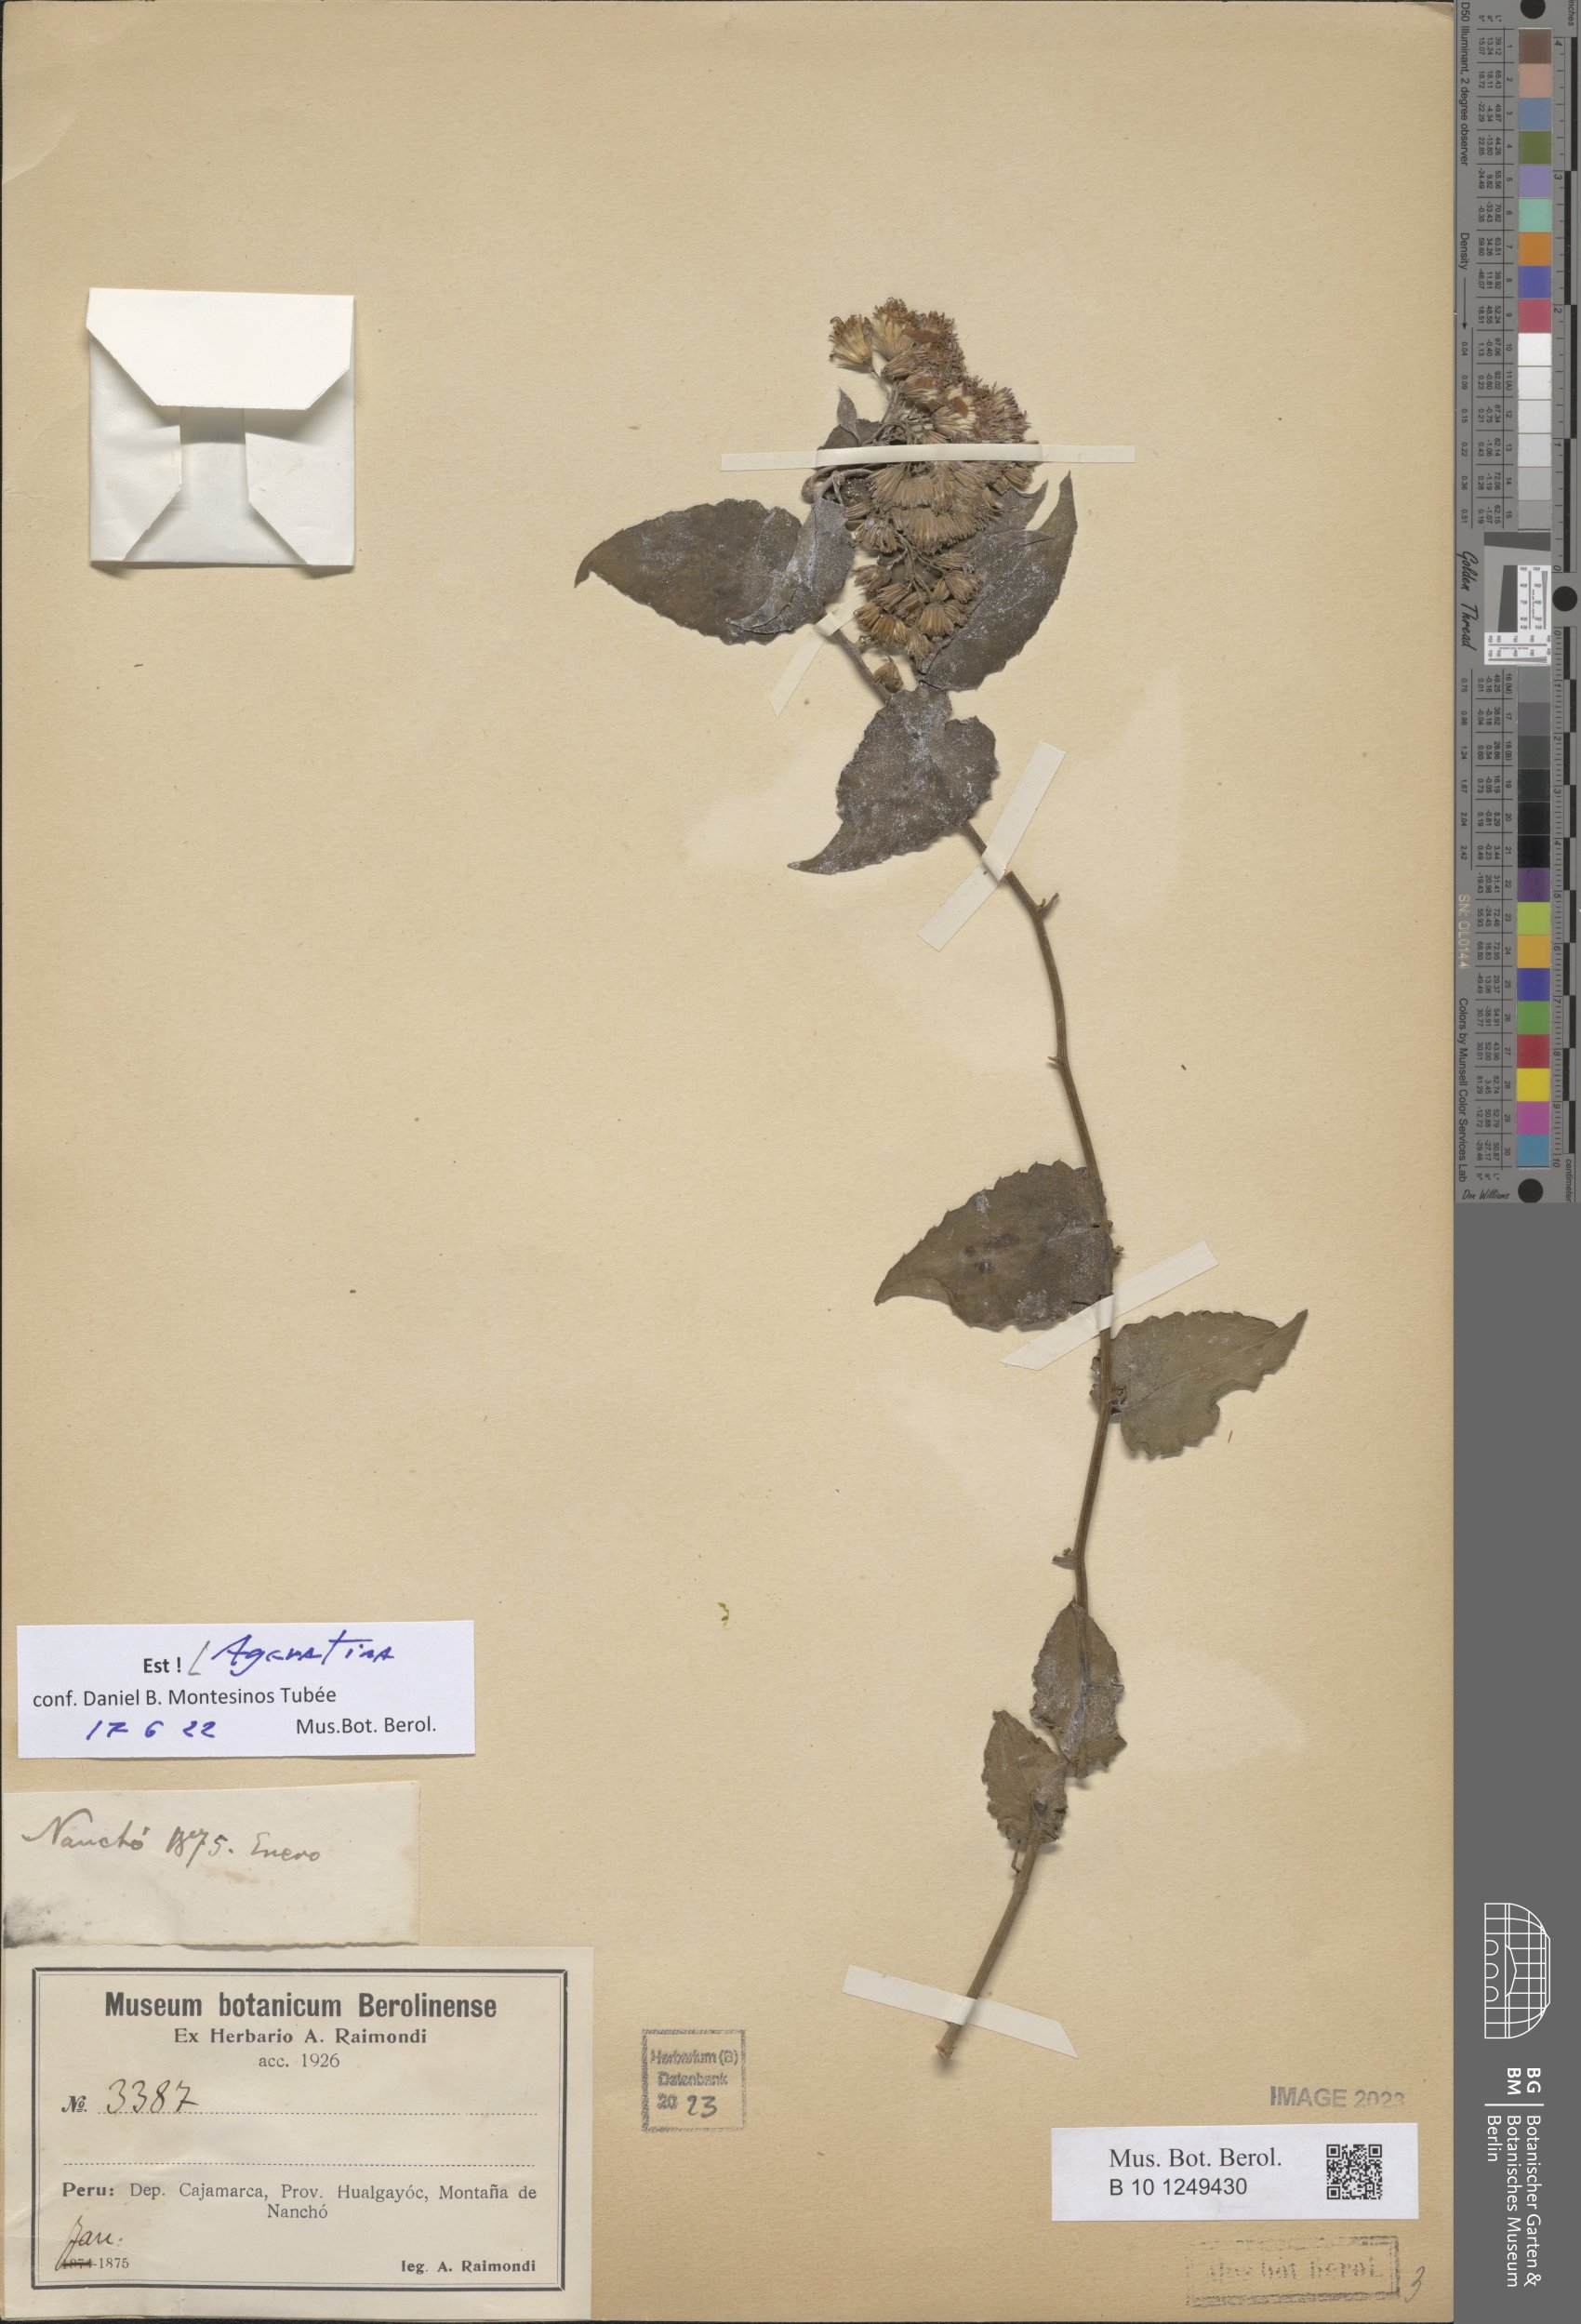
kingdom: Plantae
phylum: Tracheophyta
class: Magnoliopsida
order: Asterales
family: Asteraceae
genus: Ageratina
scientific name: Ageratina
